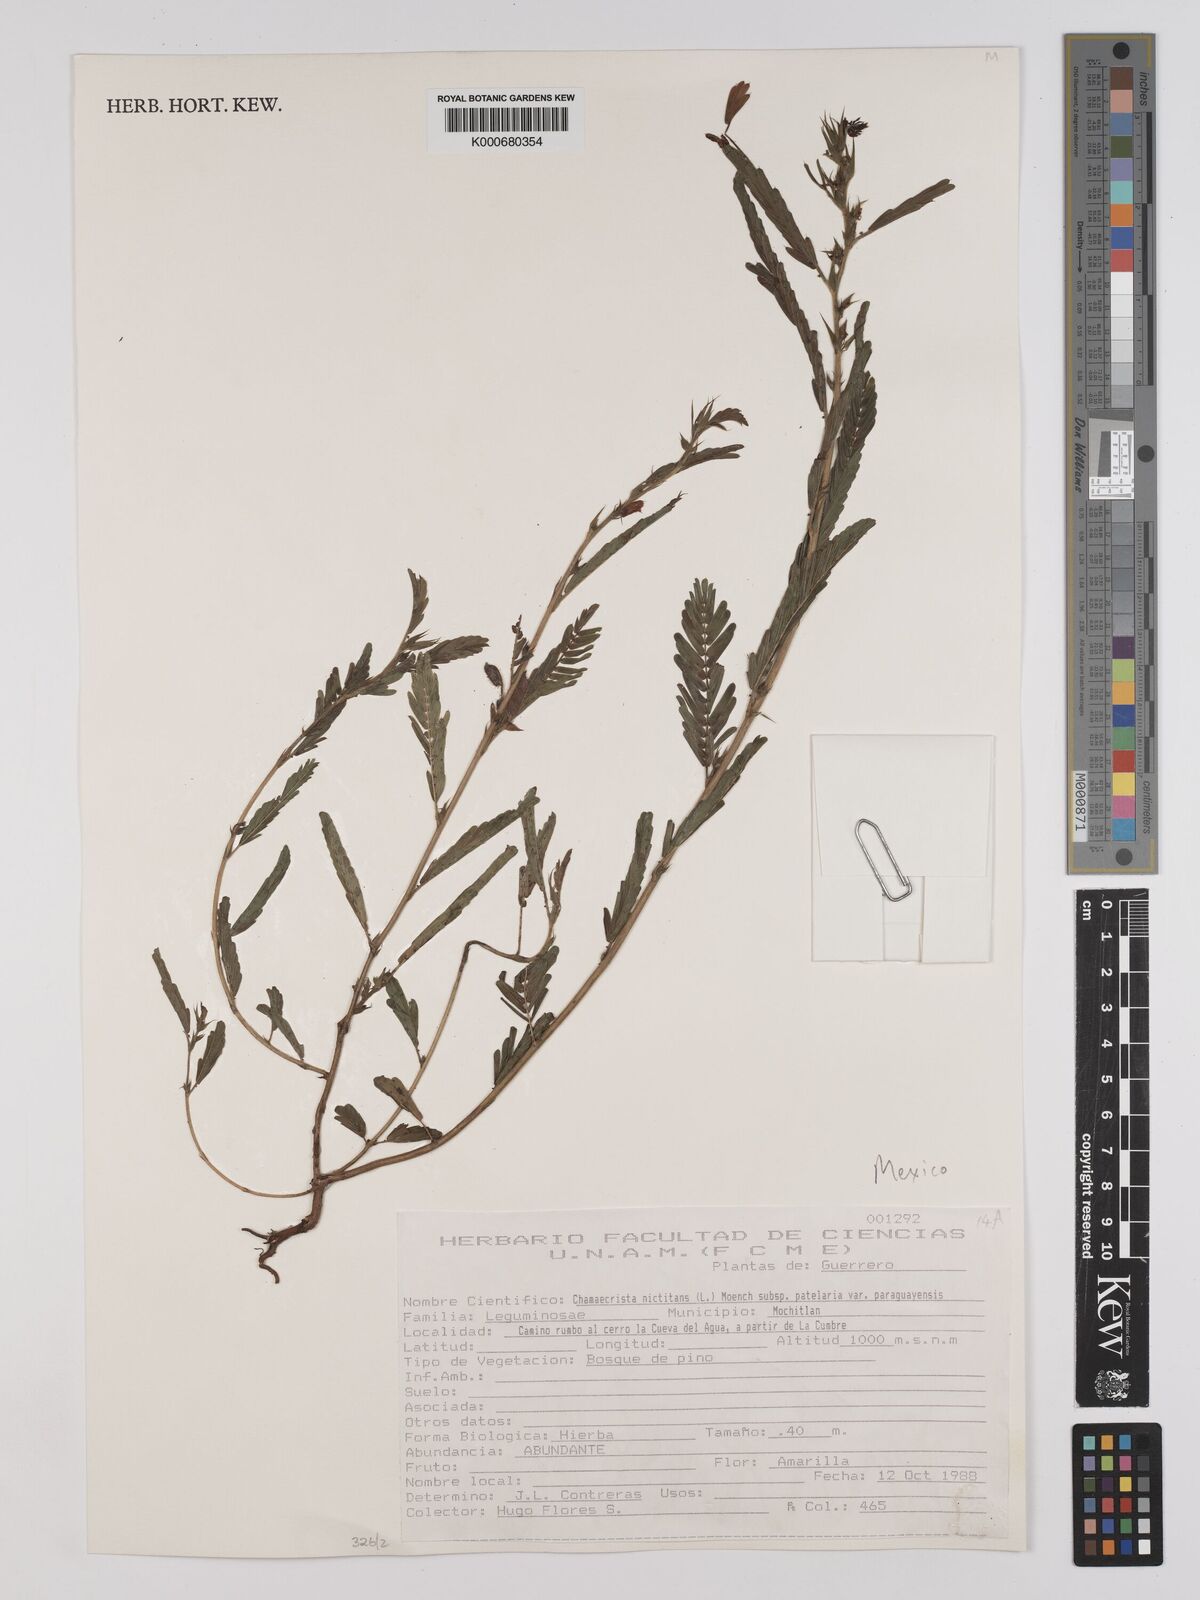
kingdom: Plantae
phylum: Tracheophyta
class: Magnoliopsida
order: Fabales
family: Fabaceae
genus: Chamaecrista
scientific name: Chamaecrista nictitans
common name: Sensitive cassia
